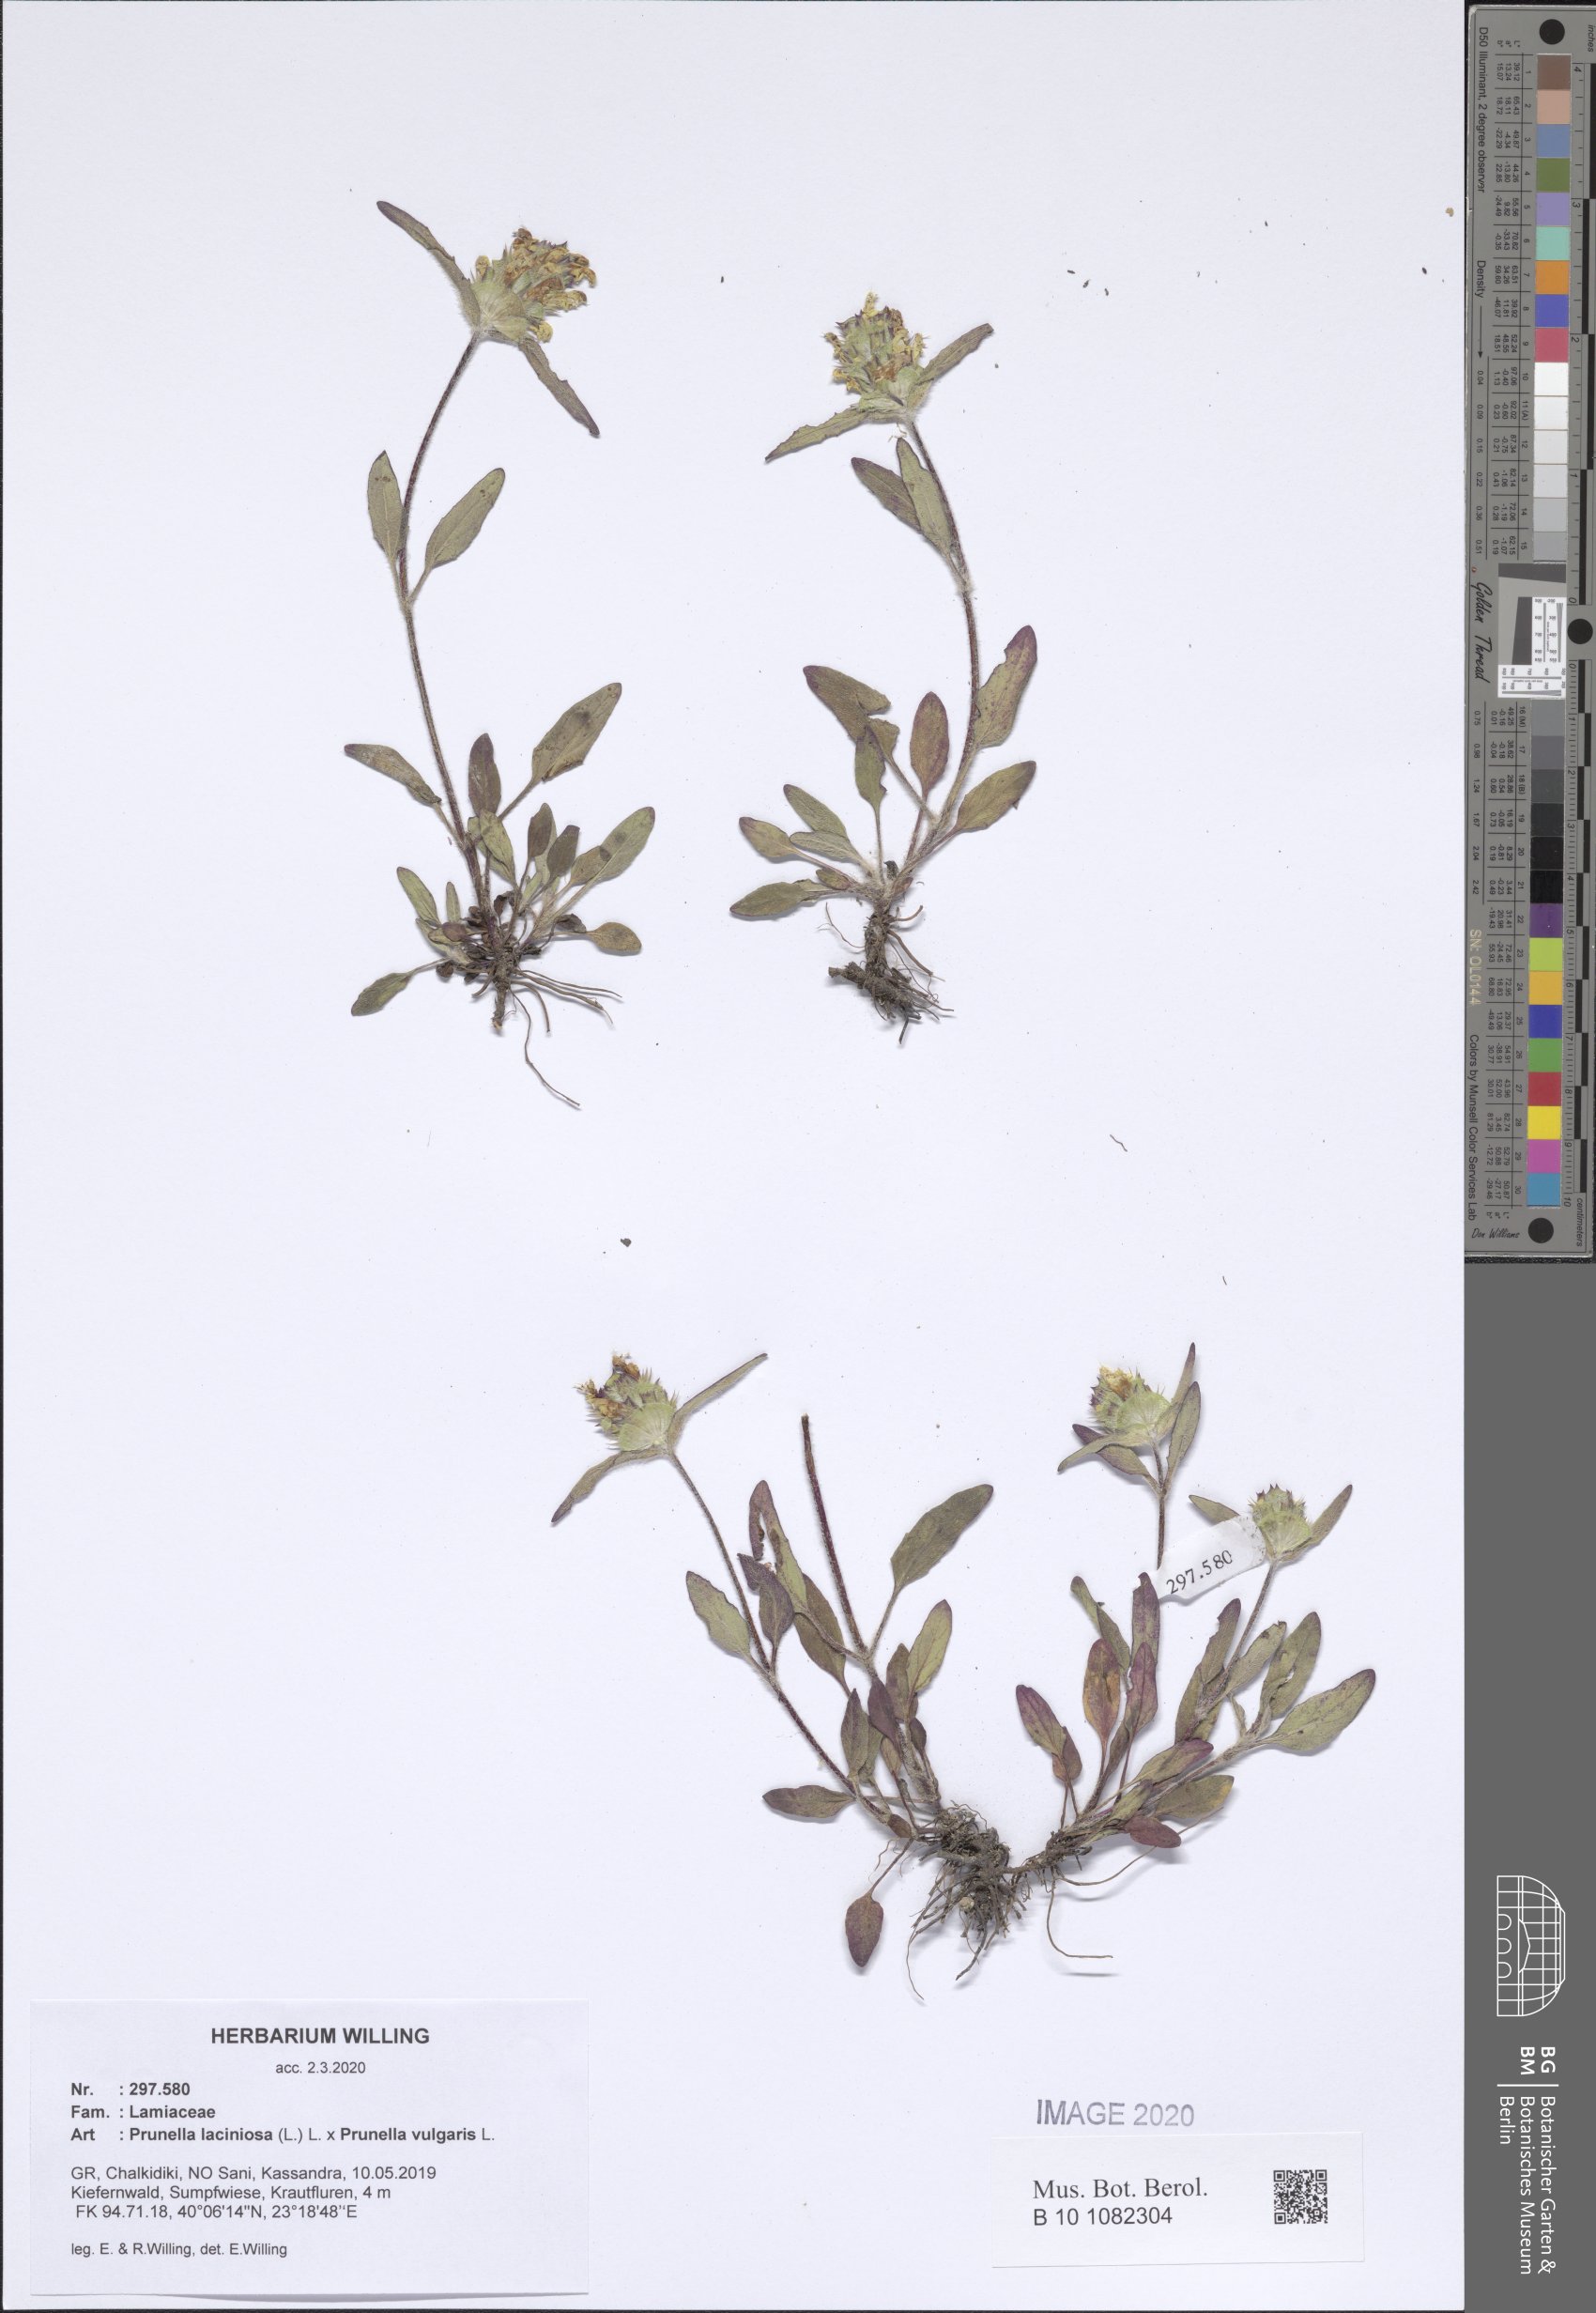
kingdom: Plantae
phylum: Tracheophyta
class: Magnoliopsida
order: Lamiales
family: Lamiaceae
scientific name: Lamiaceae
